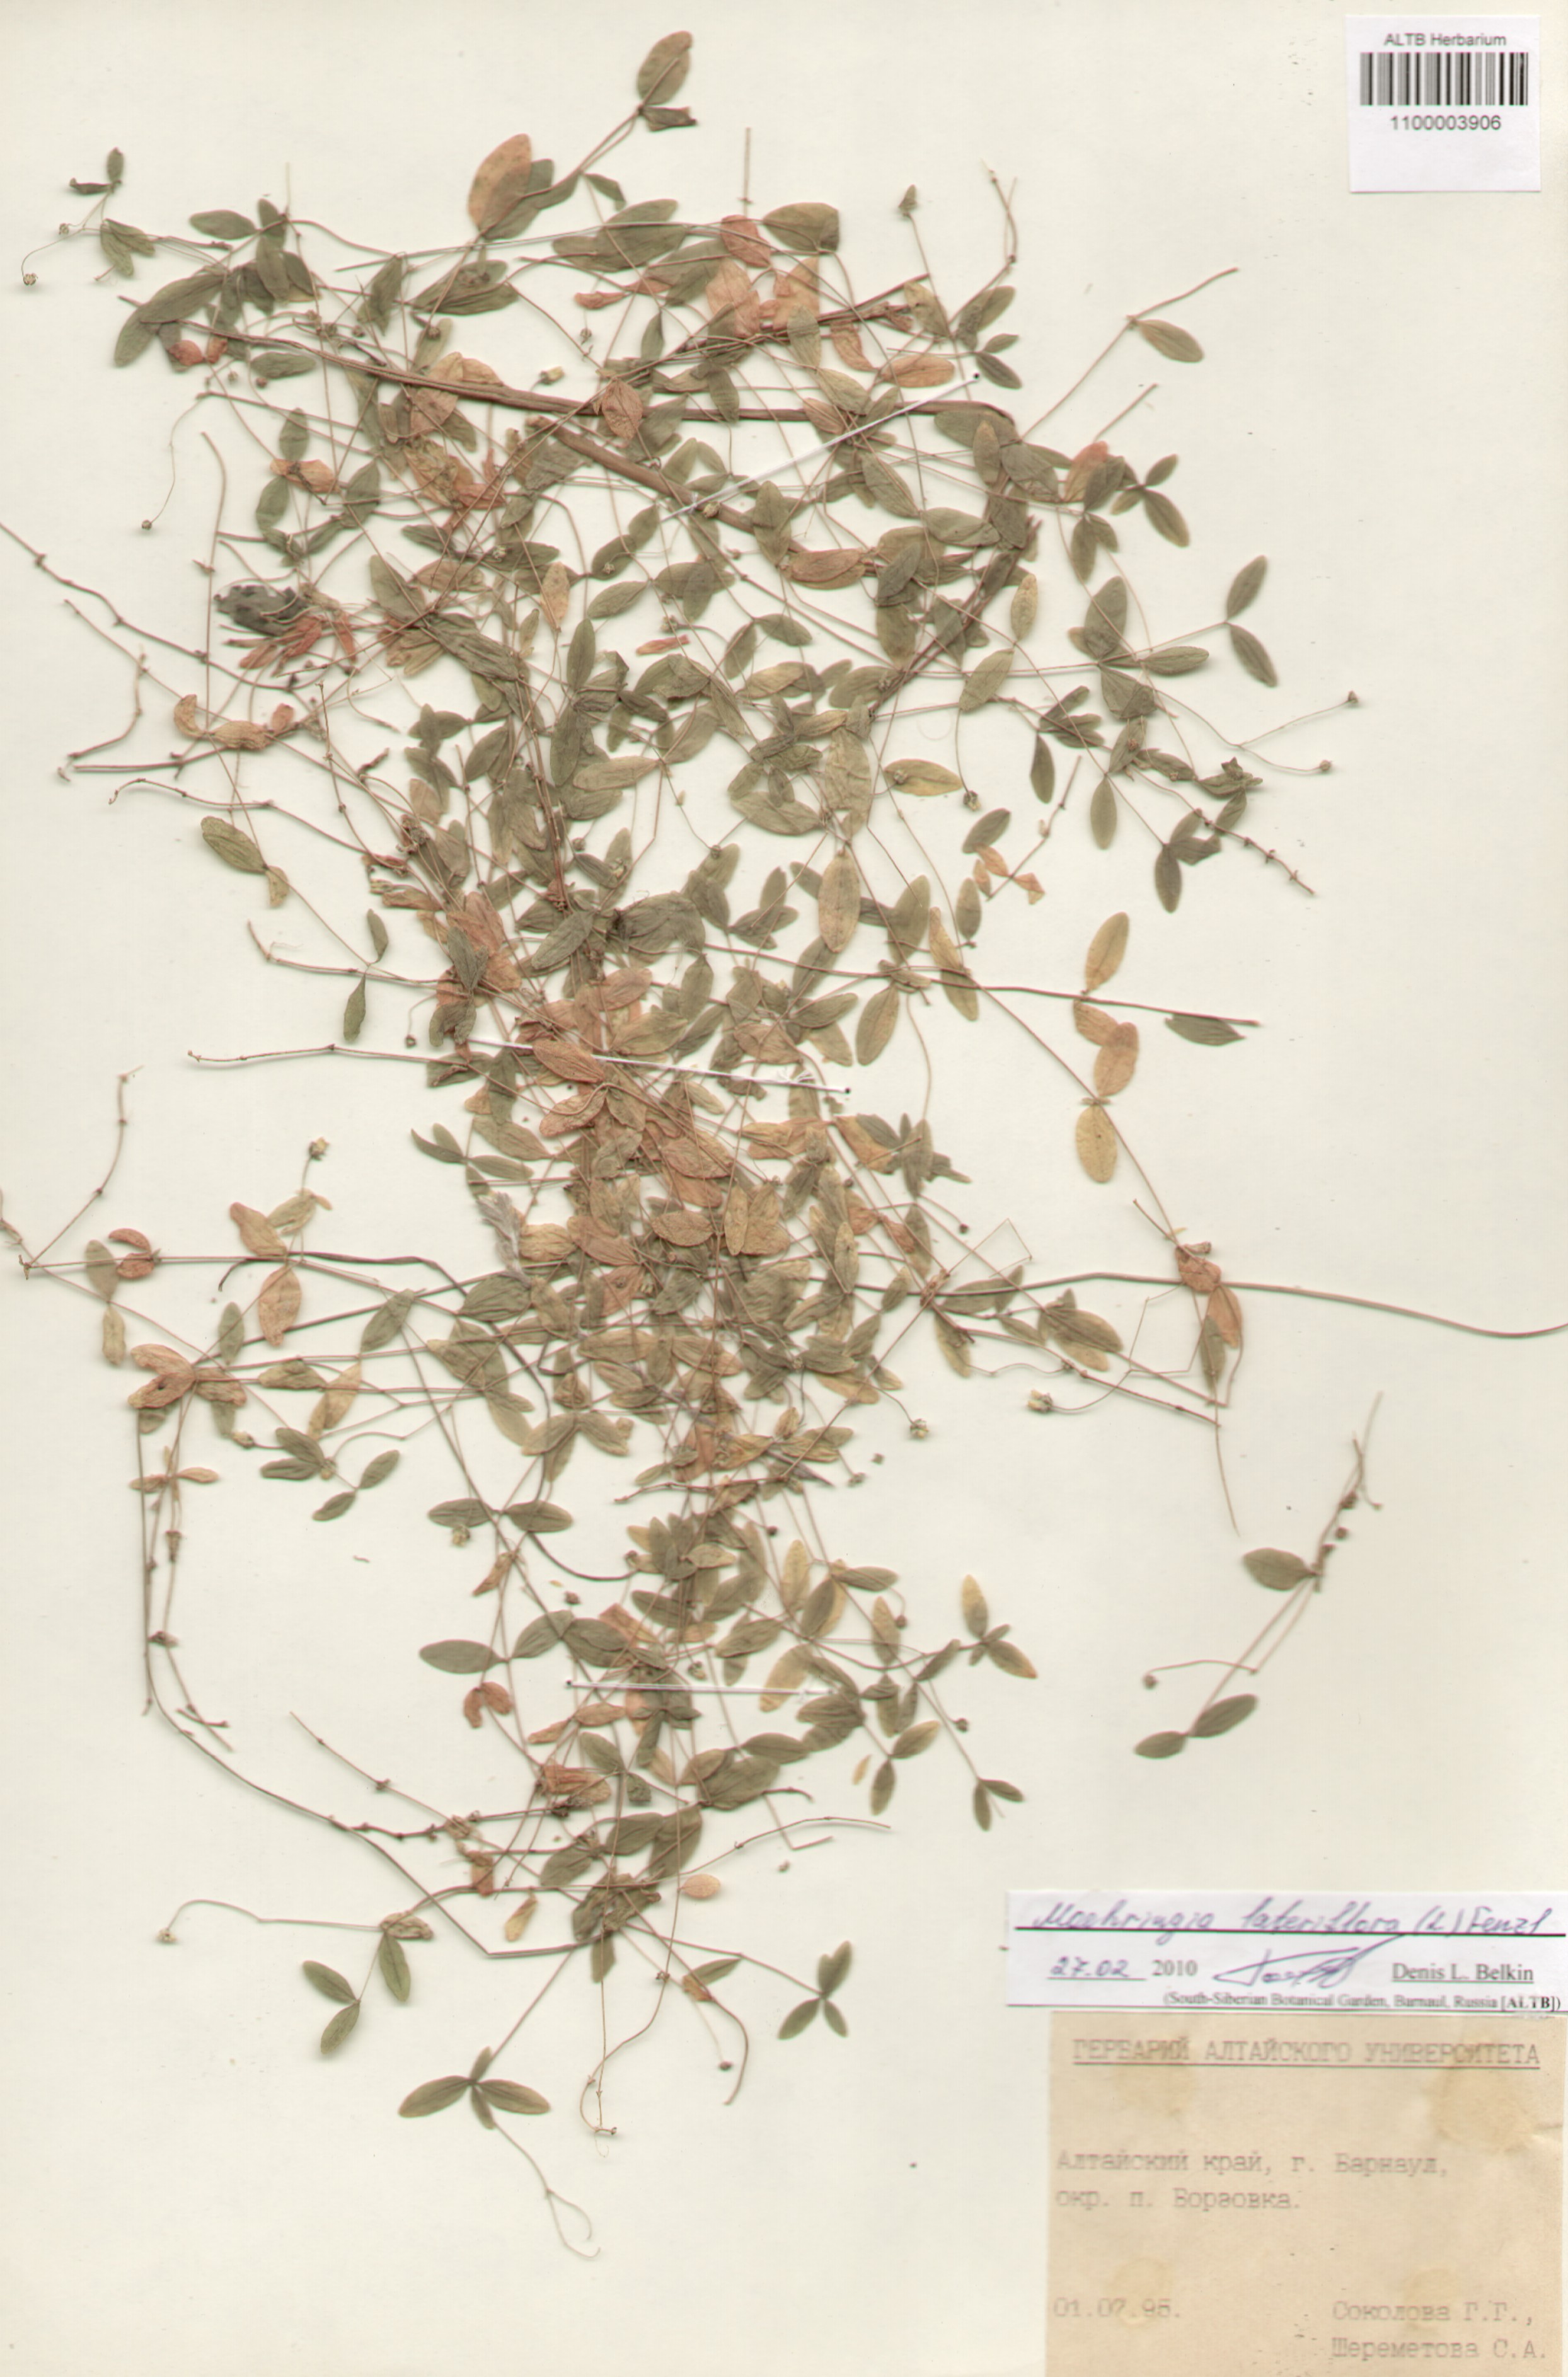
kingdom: Plantae
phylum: Tracheophyta
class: Magnoliopsida
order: Caryophyllales
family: Caryophyllaceae
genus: Moehringia
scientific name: Moehringia lateriflora
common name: Blunt-leaved sandwort
